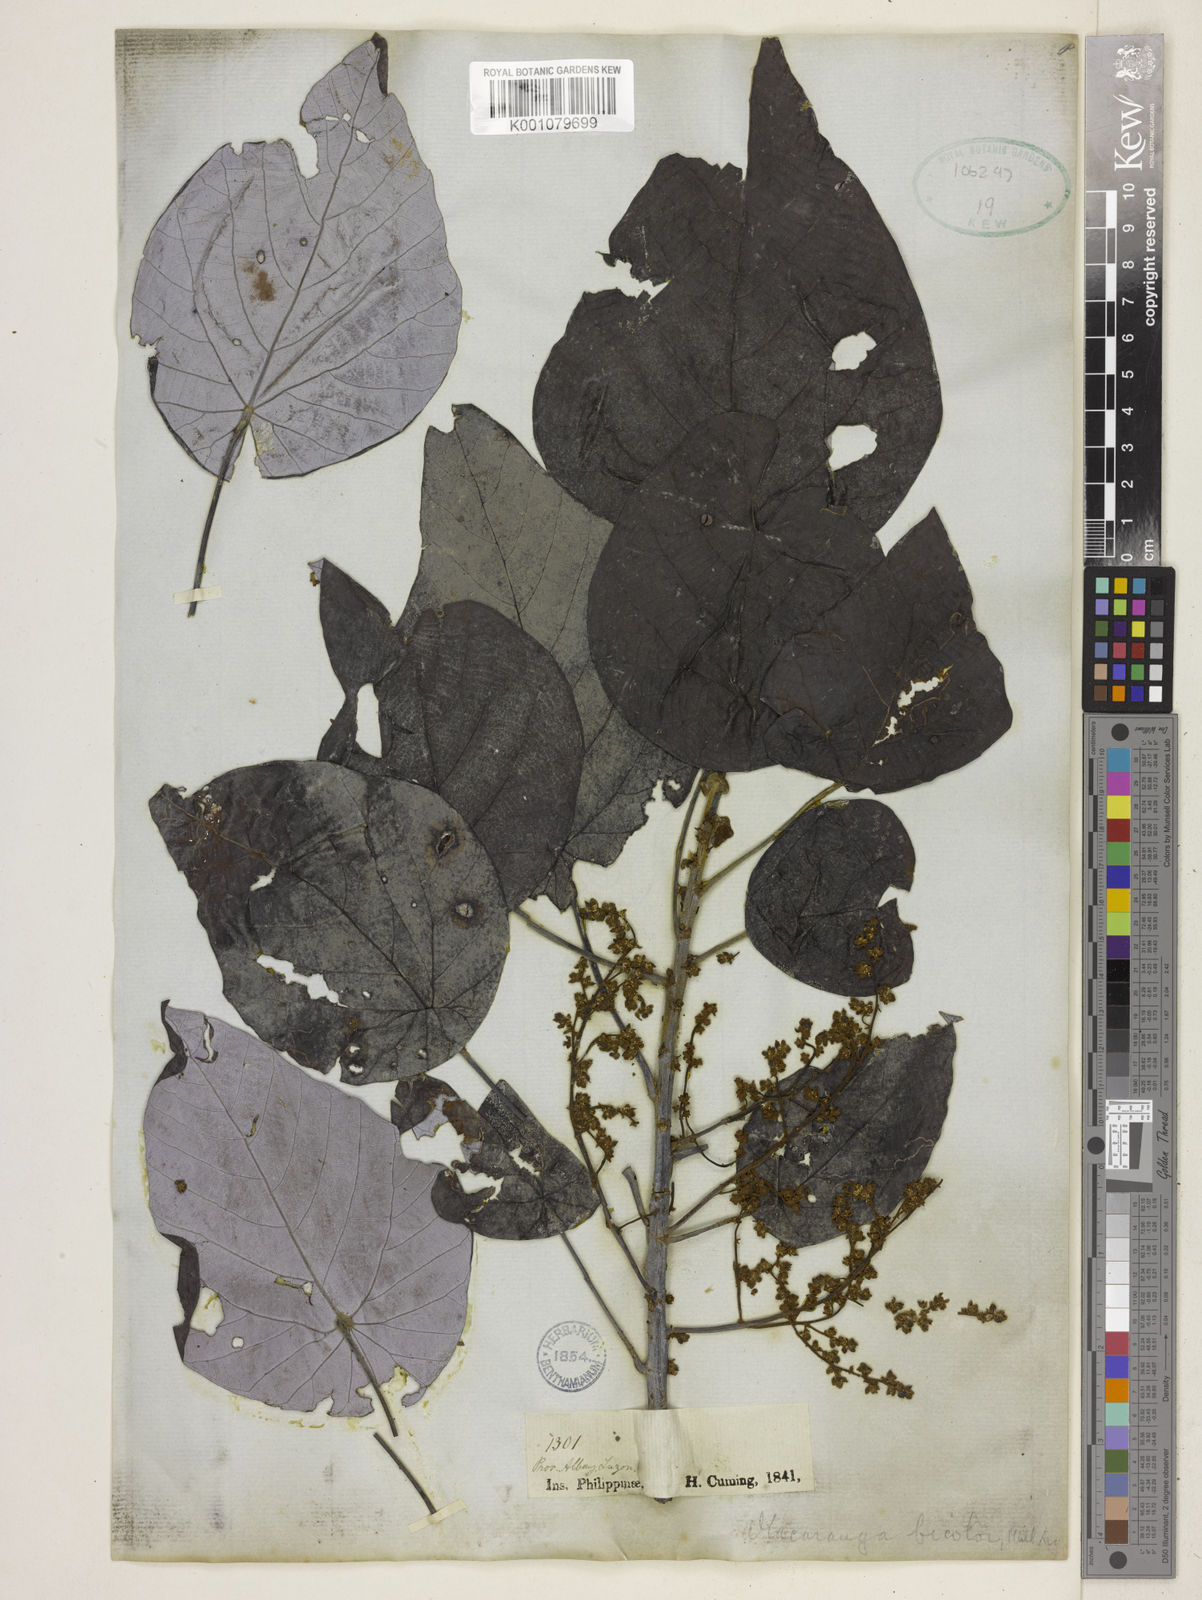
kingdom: Plantae
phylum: Tracheophyta
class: Magnoliopsida
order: Malpighiales
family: Euphorbiaceae
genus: Macaranga
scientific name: Macaranga
